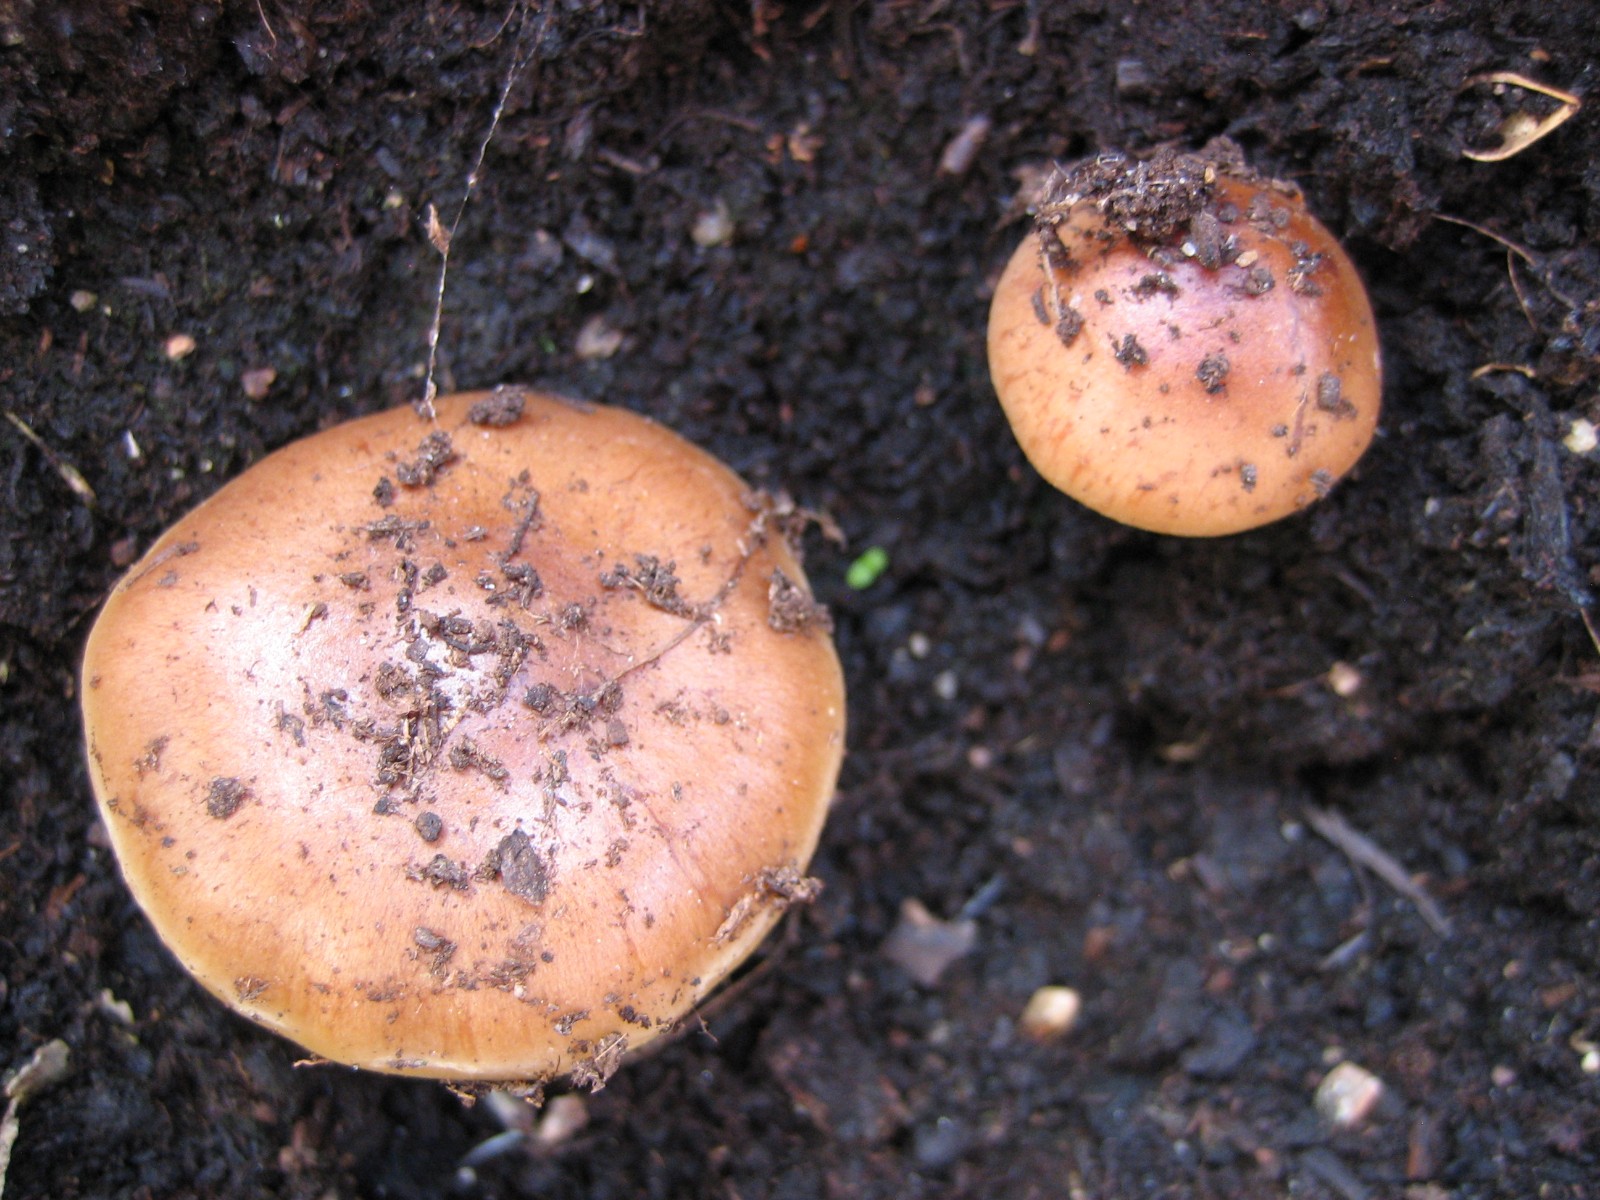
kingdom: Fungi
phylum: Basidiomycota
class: Agaricomycetes
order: Agaricales
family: Strophariaceae
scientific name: Strophariaceae
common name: bredbladfamilien
